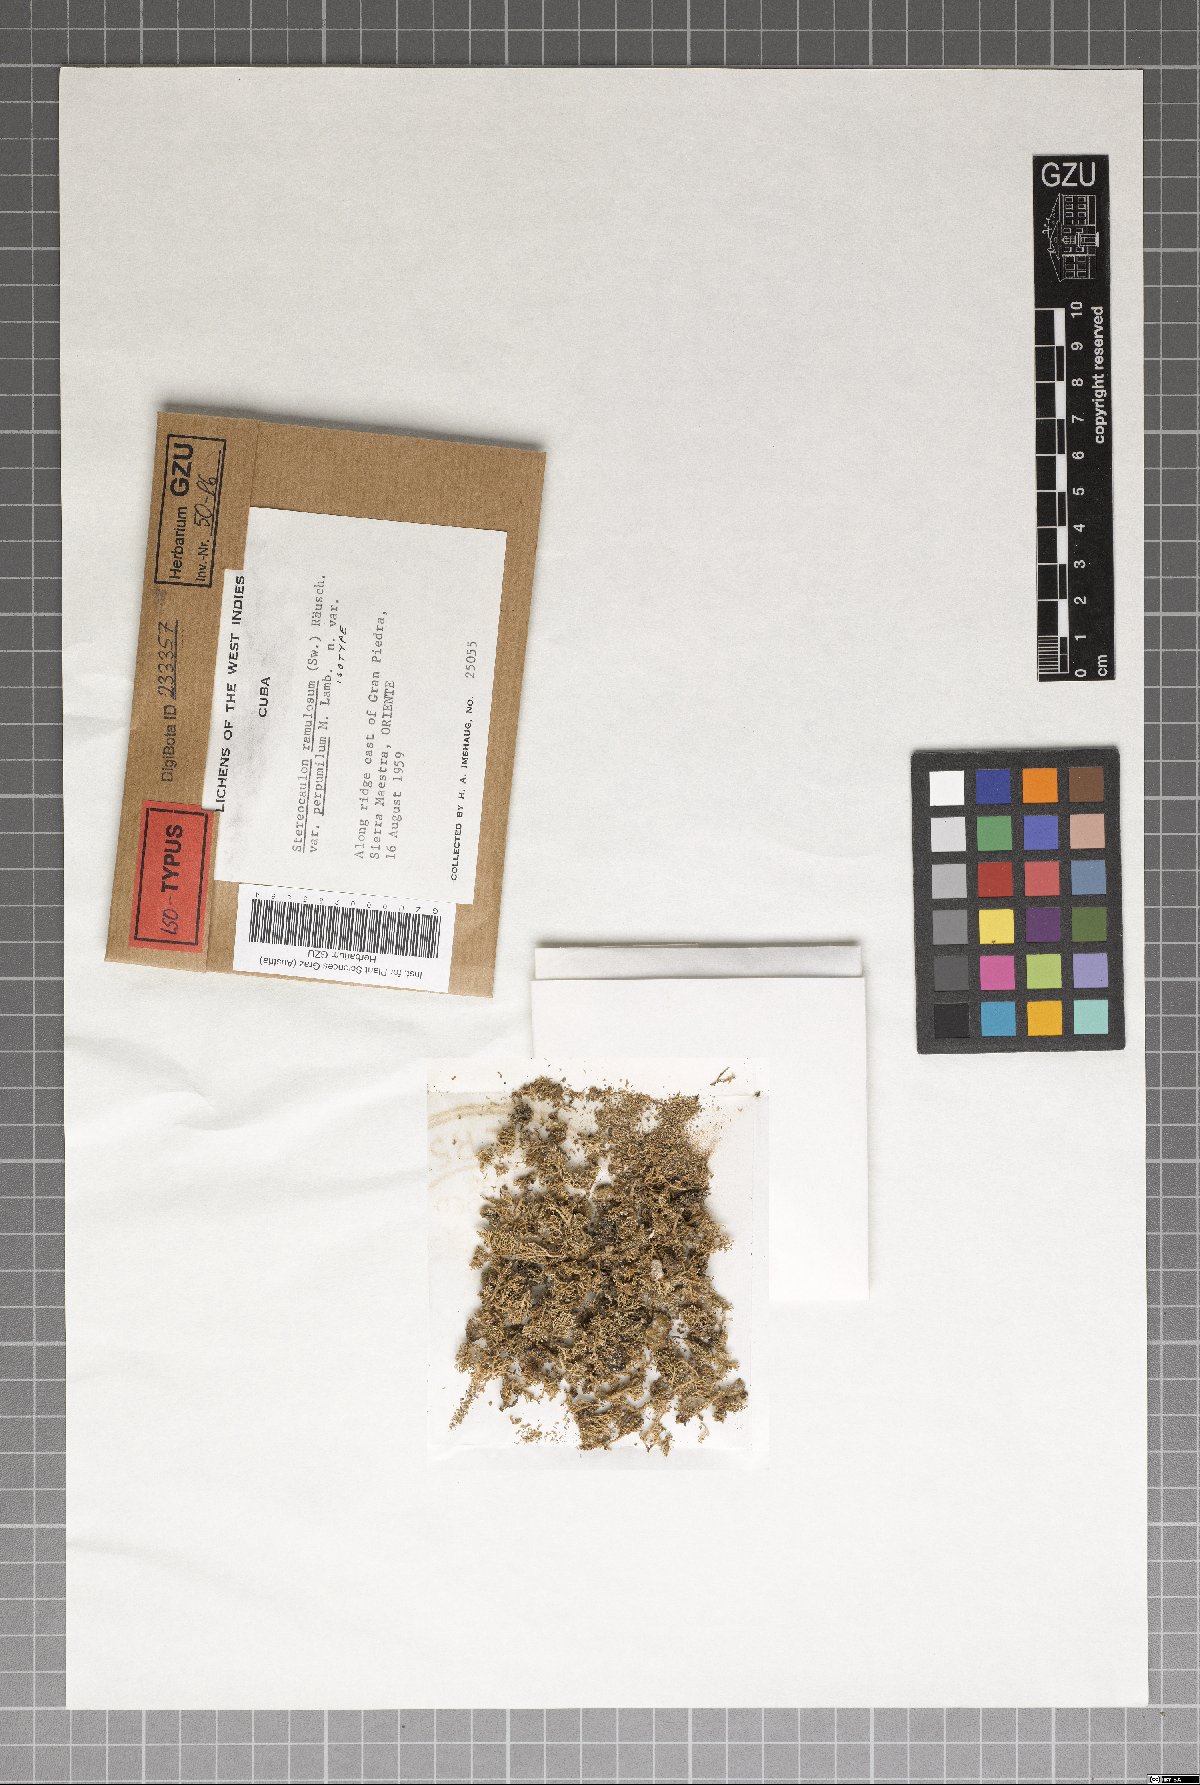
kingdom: Fungi
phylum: Ascomycota
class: Lecanoromycetes
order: Lecanorales
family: Stereocaulaceae
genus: Stereocaulon
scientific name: Stereocaulon ramulosum
